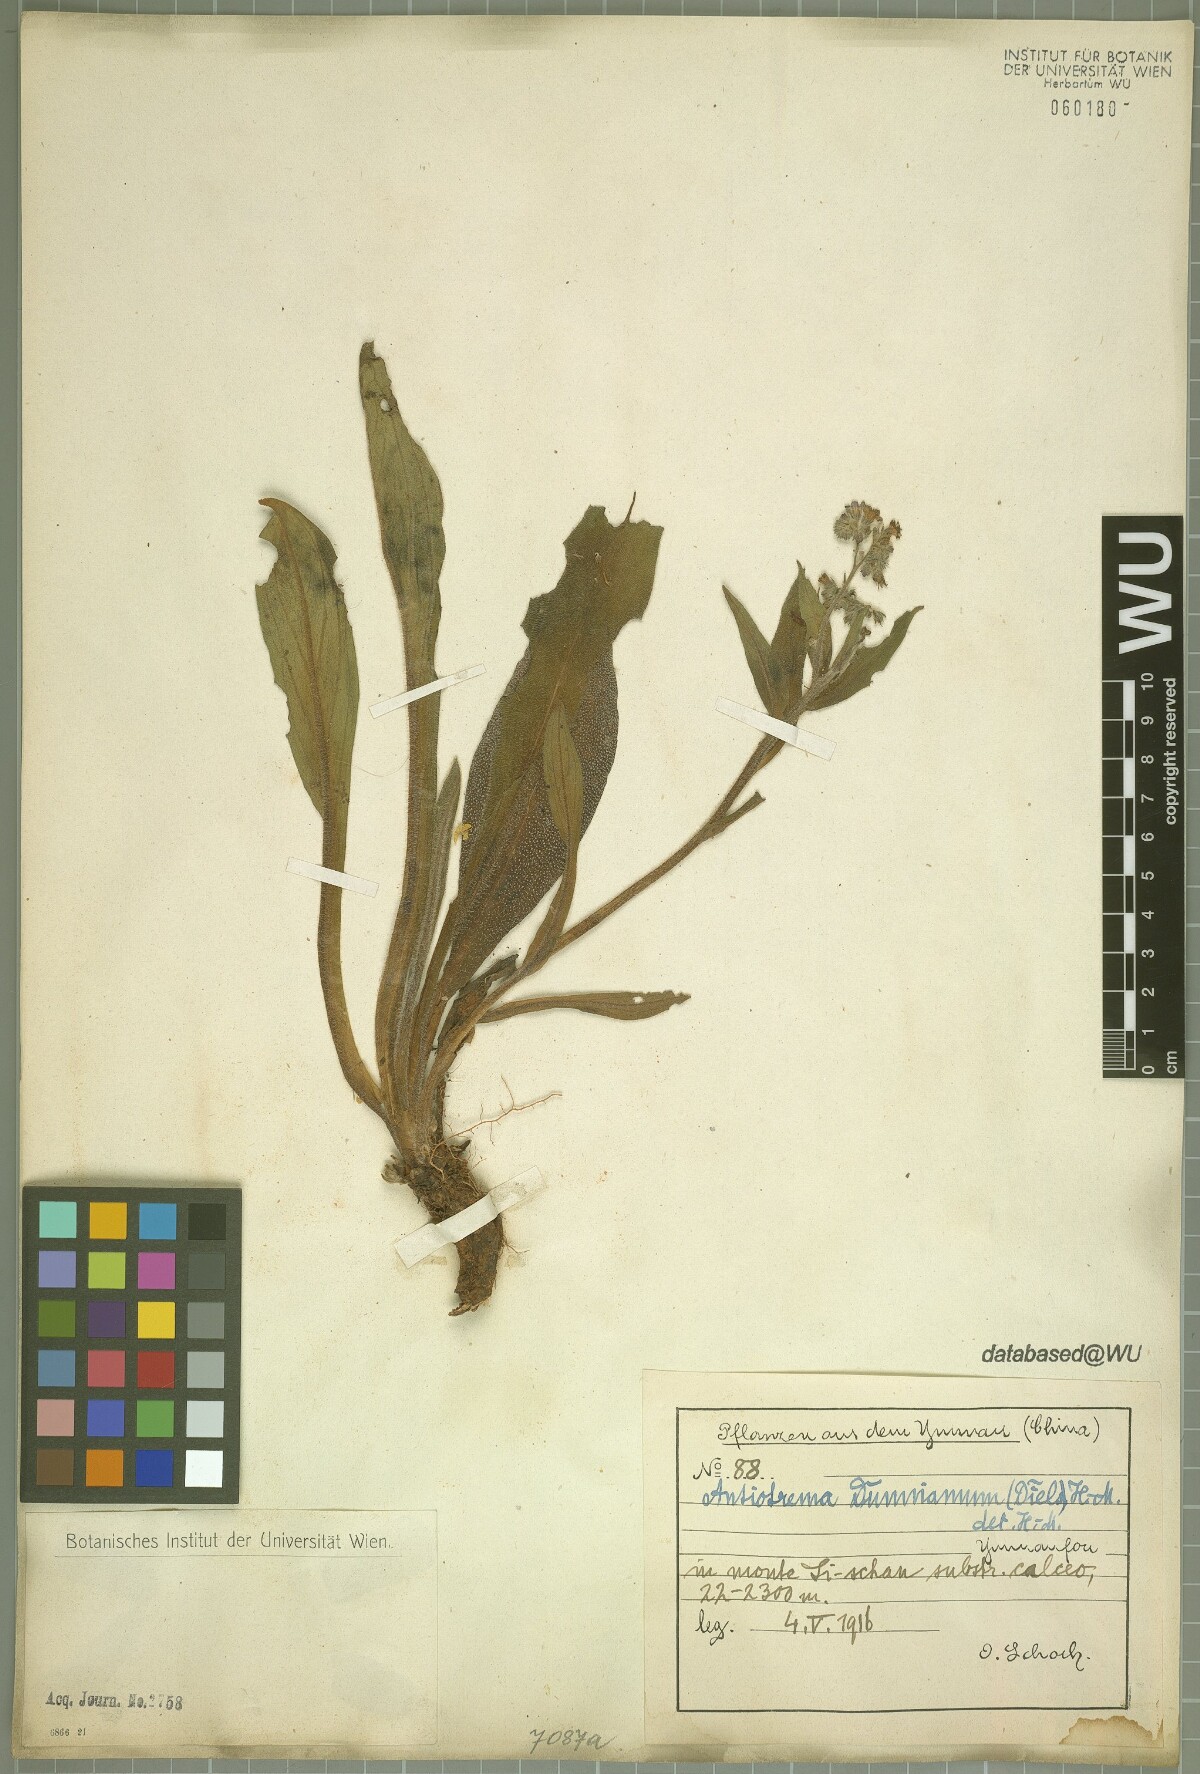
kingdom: Plantae
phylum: Tracheophyta
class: Magnoliopsida
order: Boraginales
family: Boraginaceae
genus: Antiotrema
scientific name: Antiotrema dunnianum
